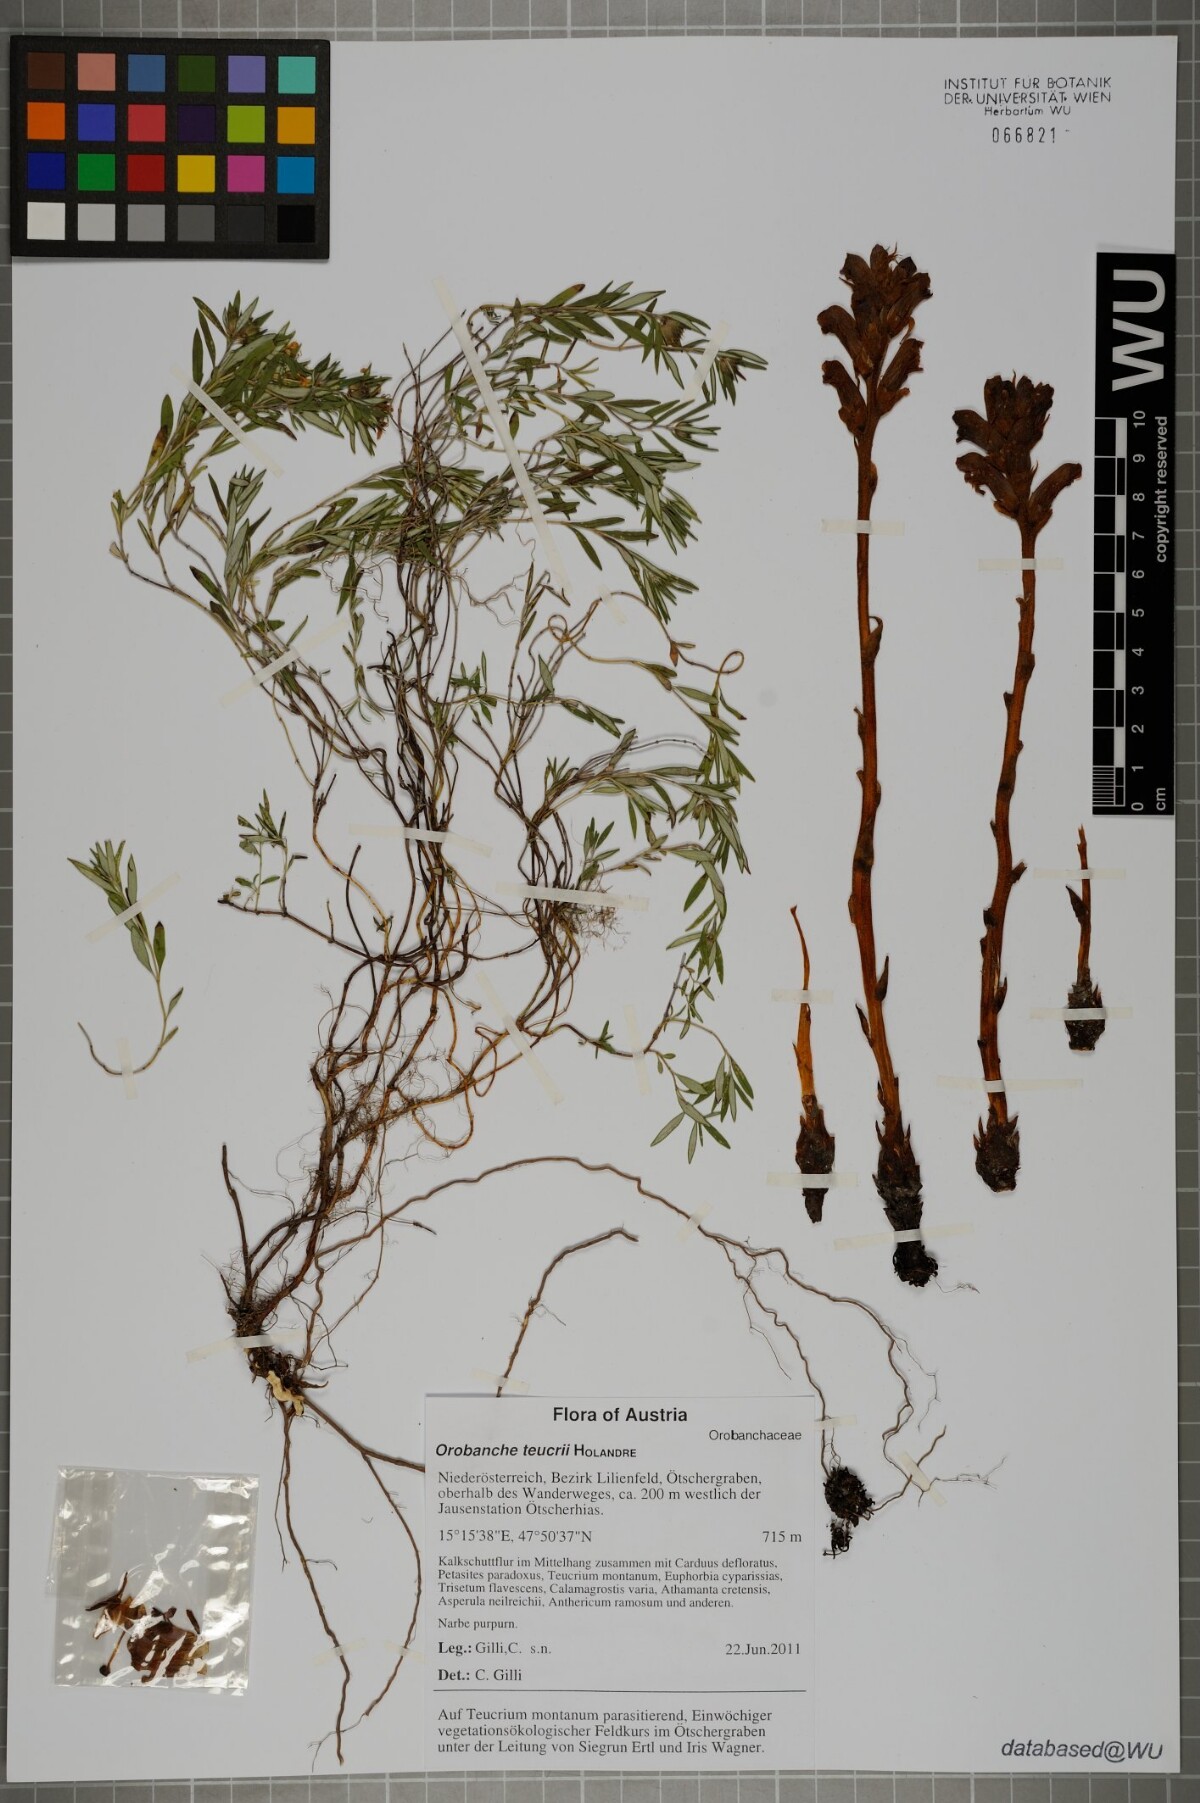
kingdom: Plantae
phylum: Tracheophyta
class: Magnoliopsida
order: Lamiales
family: Orobanchaceae
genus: Orobanche
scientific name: Orobanche teucrii
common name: Germander broomrape
